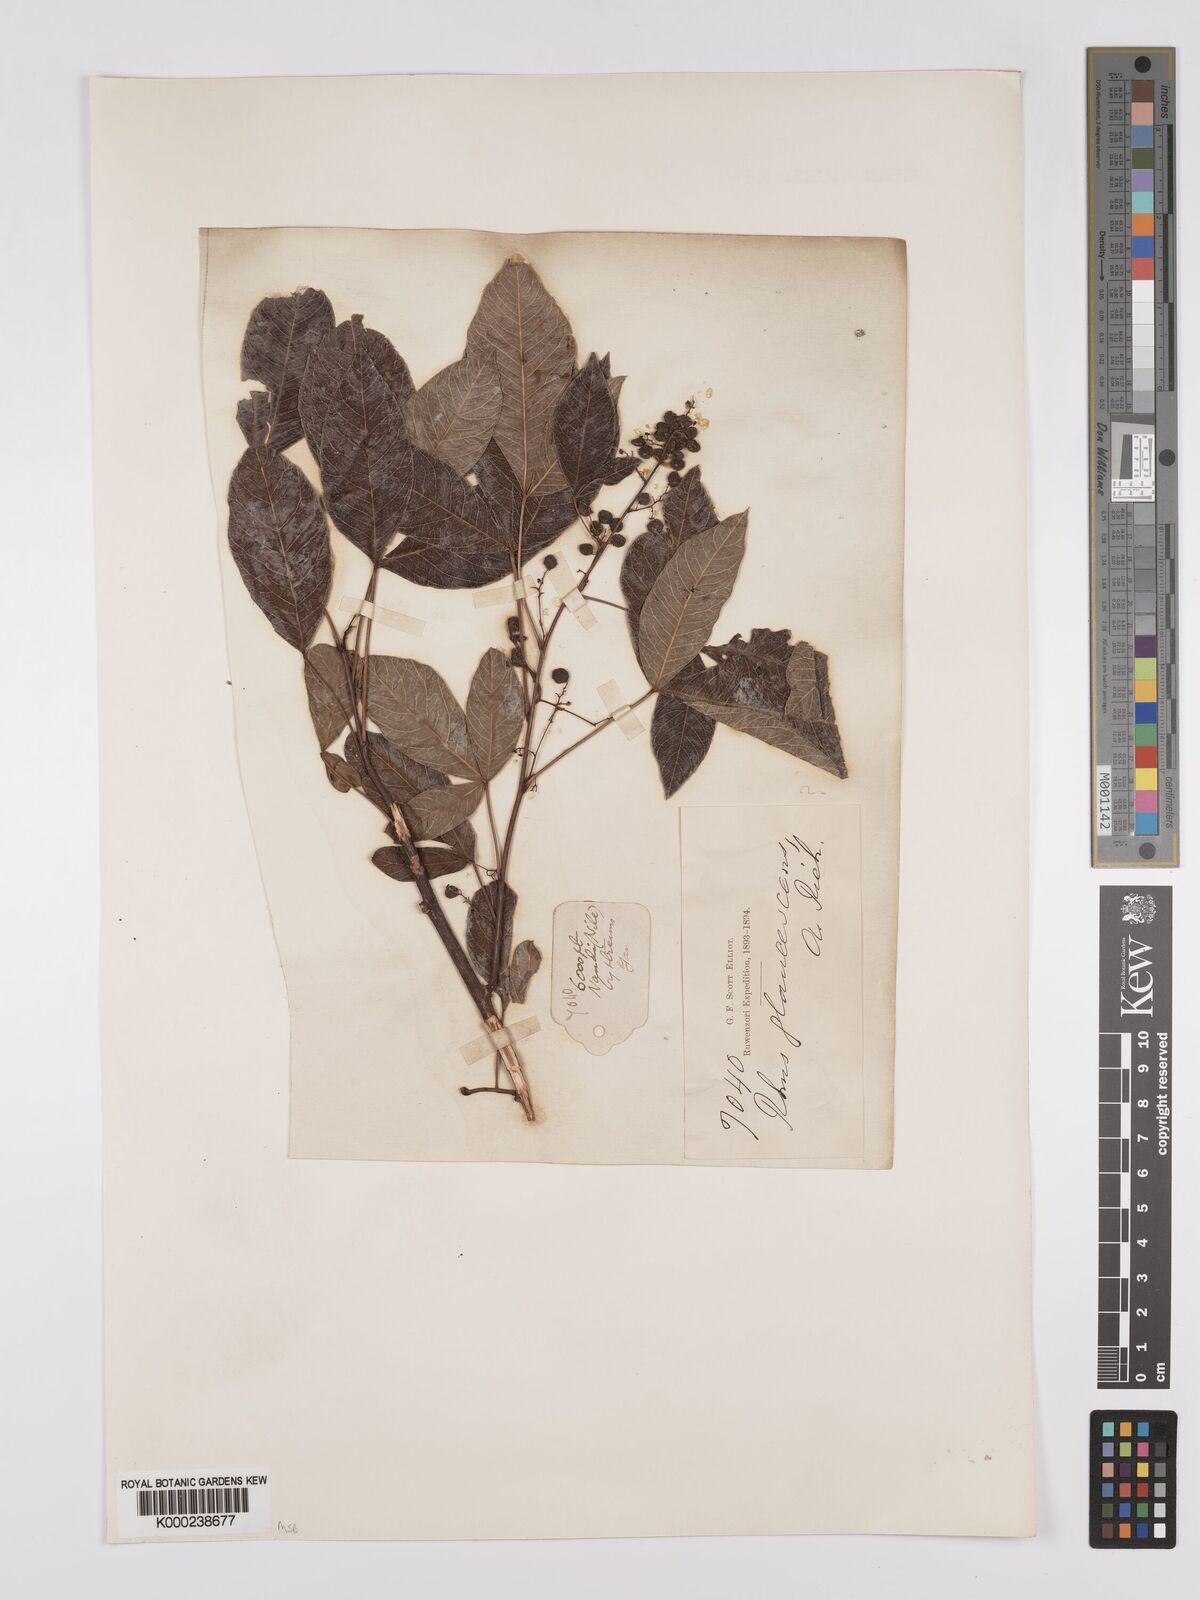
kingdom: Plantae
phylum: Tracheophyta
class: Magnoliopsida
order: Sapindales
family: Anacardiaceae
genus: Searsia
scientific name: Searsia longipes
